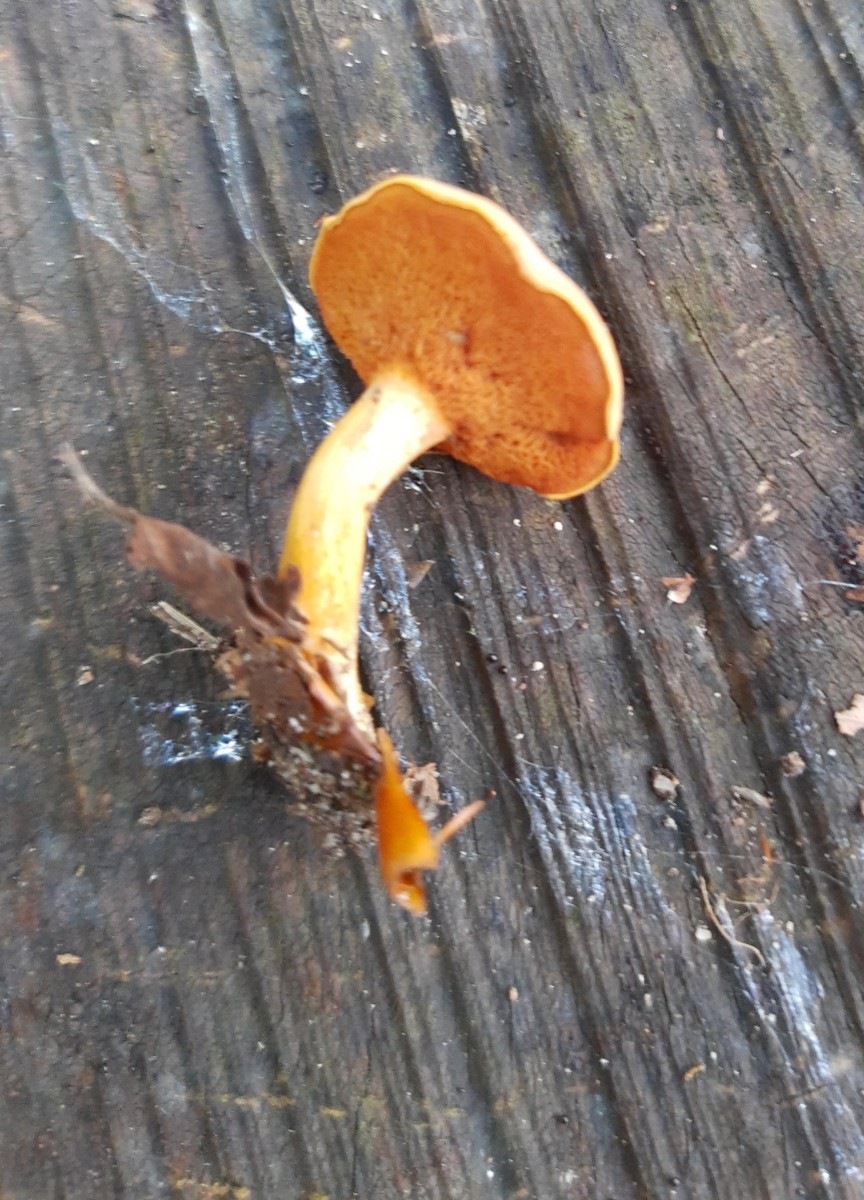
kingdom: Fungi
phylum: Basidiomycota
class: Agaricomycetes
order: Boletales
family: Boletaceae
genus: Chalciporus
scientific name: Chalciporus piperatus
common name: peberrørhat
